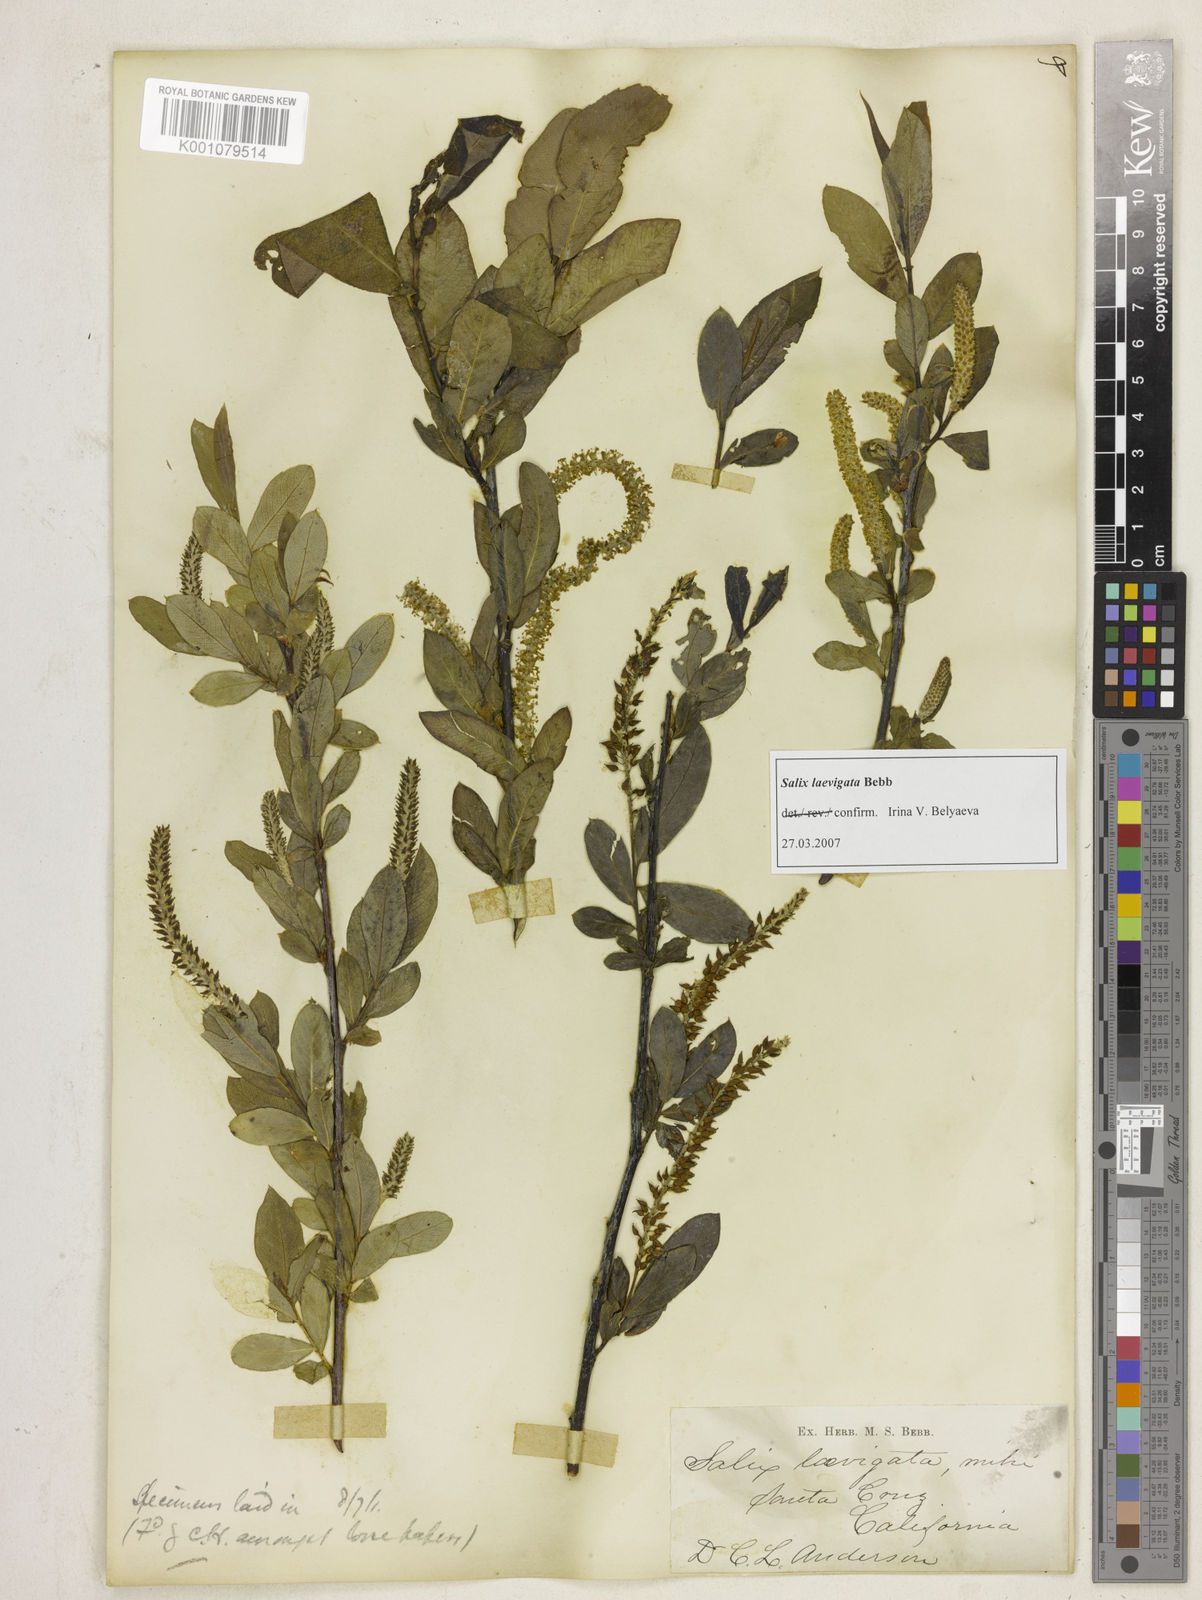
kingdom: Plantae
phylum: Tracheophyta
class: Magnoliopsida
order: Malpighiales
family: Salicaceae
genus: Salix
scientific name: Salix laevigata
